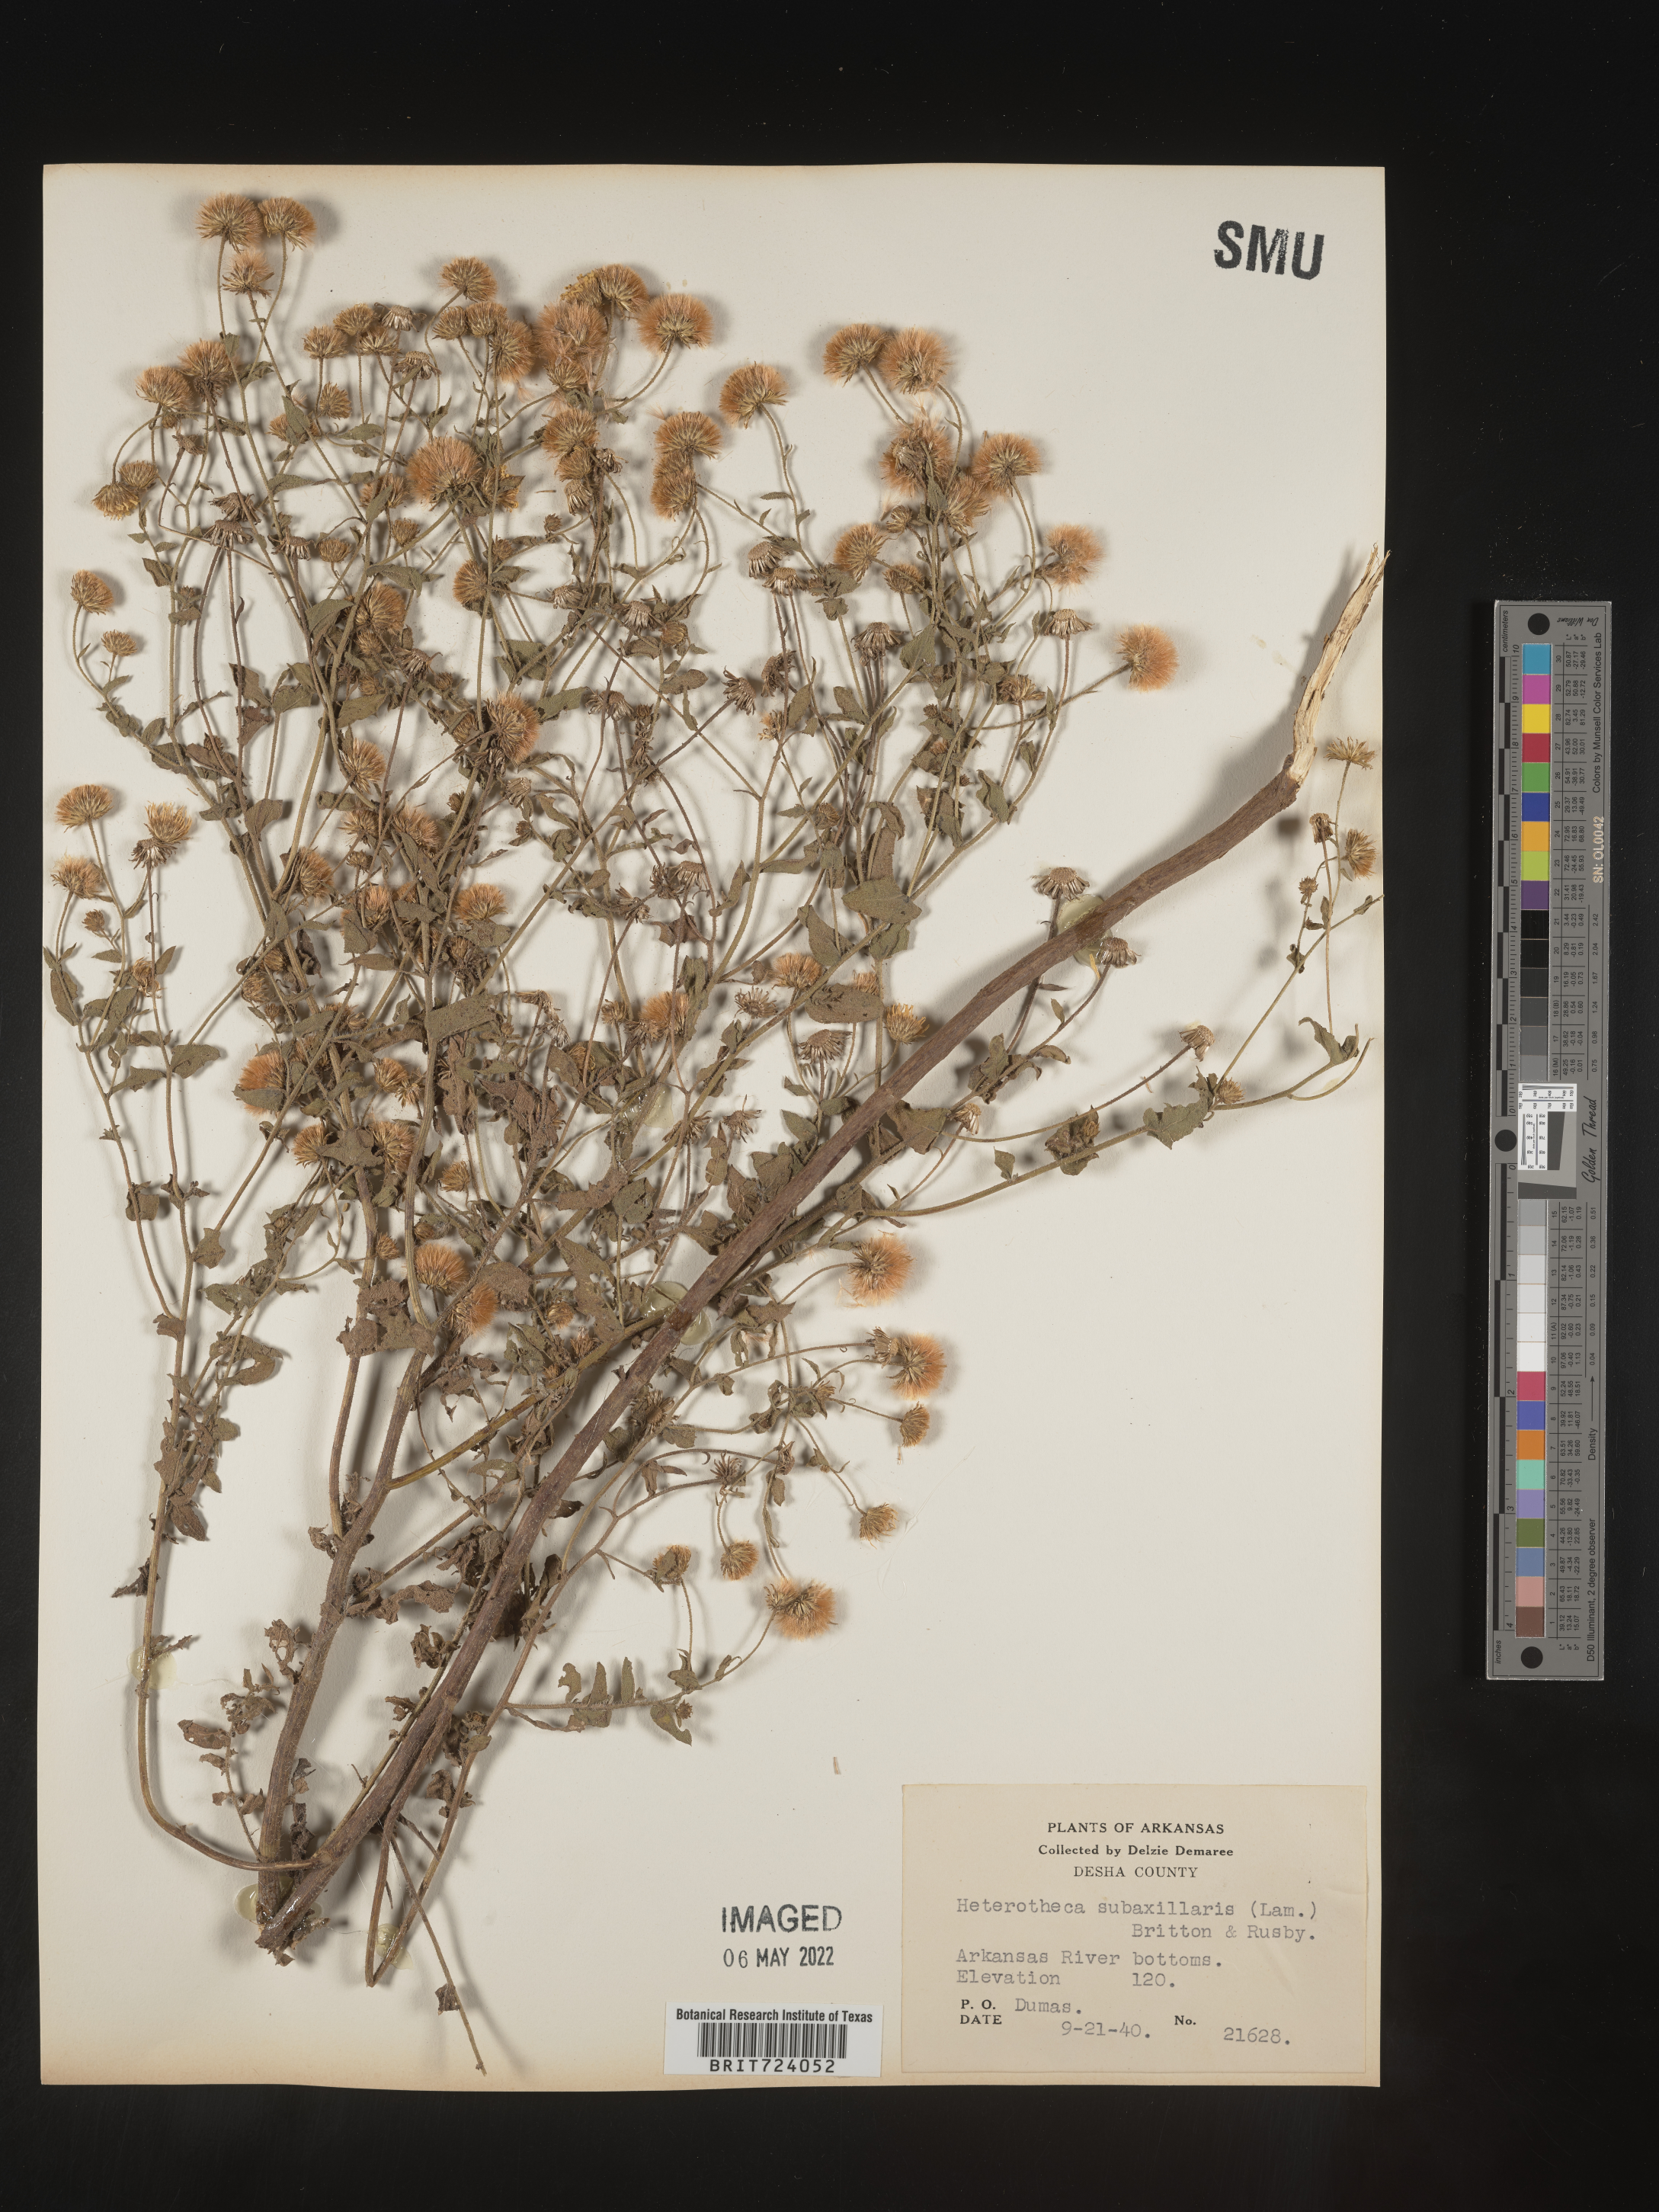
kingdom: Plantae
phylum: Tracheophyta
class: Magnoliopsida
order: Asterales
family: Asteraceae
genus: Heterotheca
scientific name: Heterotheca subaxillaris
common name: Camphorweed
